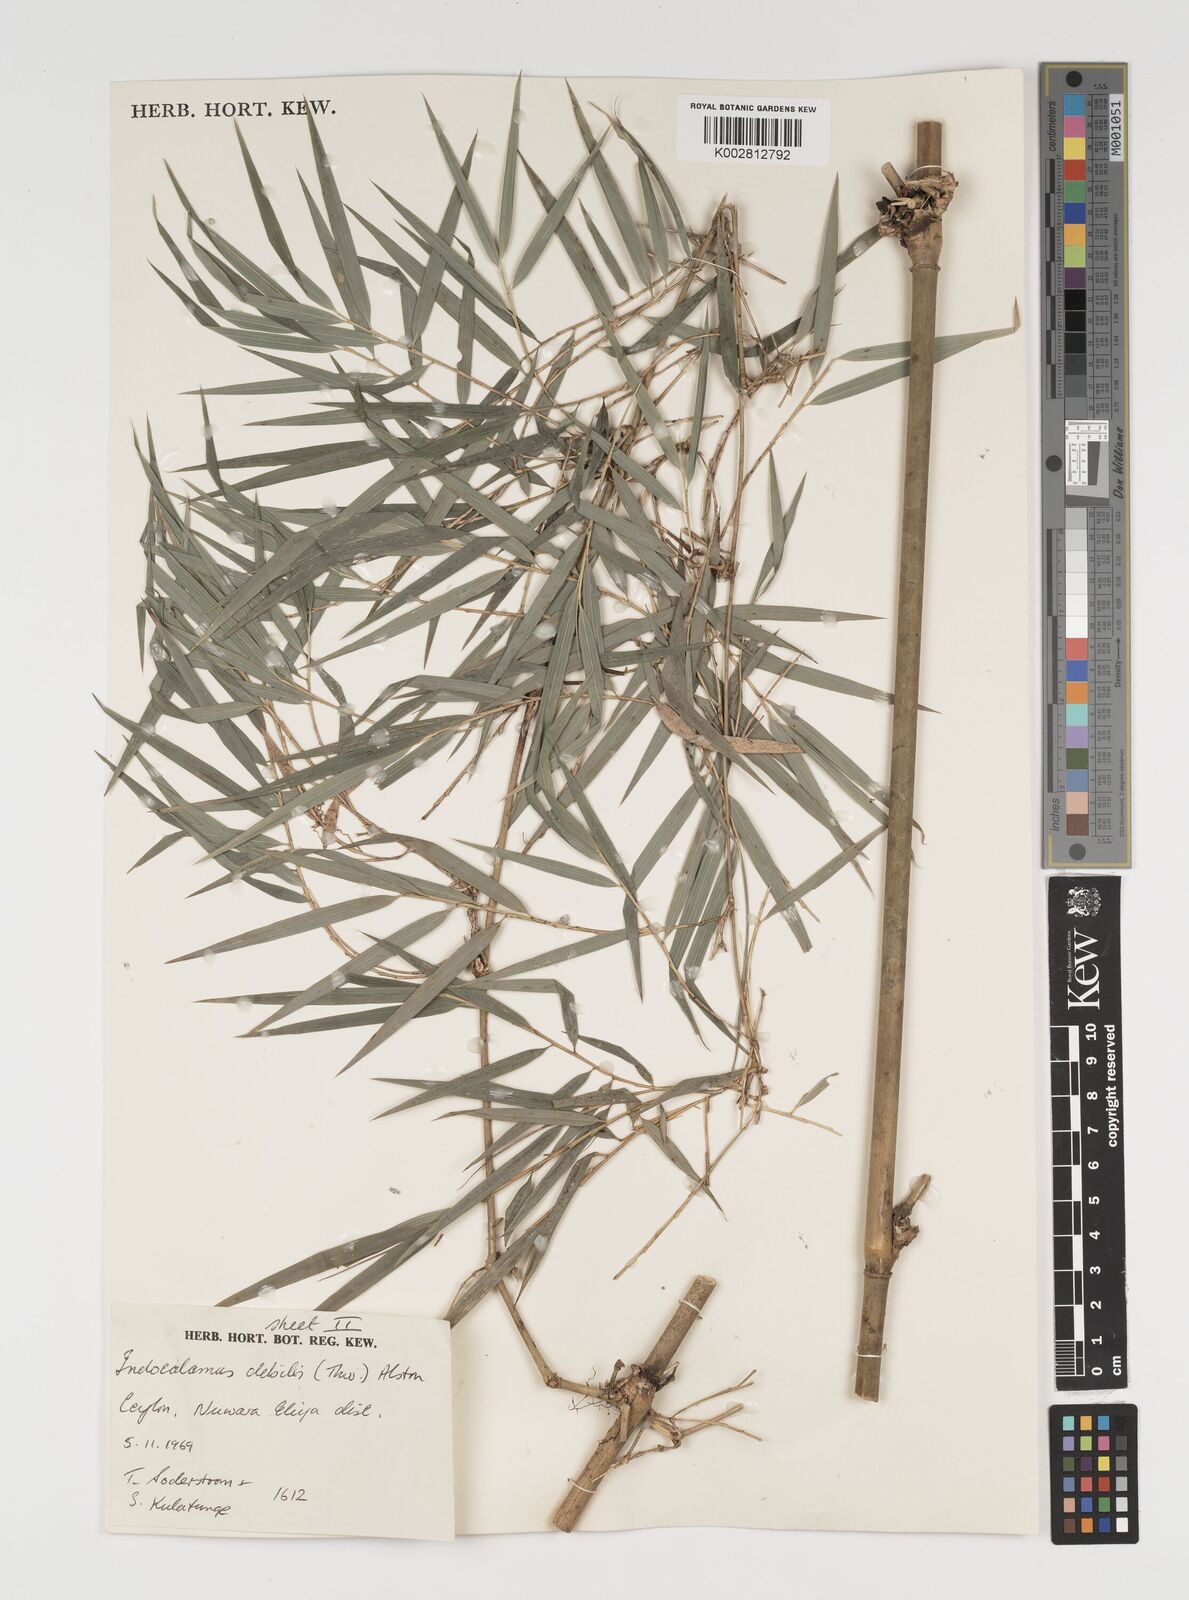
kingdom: Plantae
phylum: Tracheophyta
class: Liliopsida
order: Poales
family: Poaceae
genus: Kuruna
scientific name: Kuruna debilis
